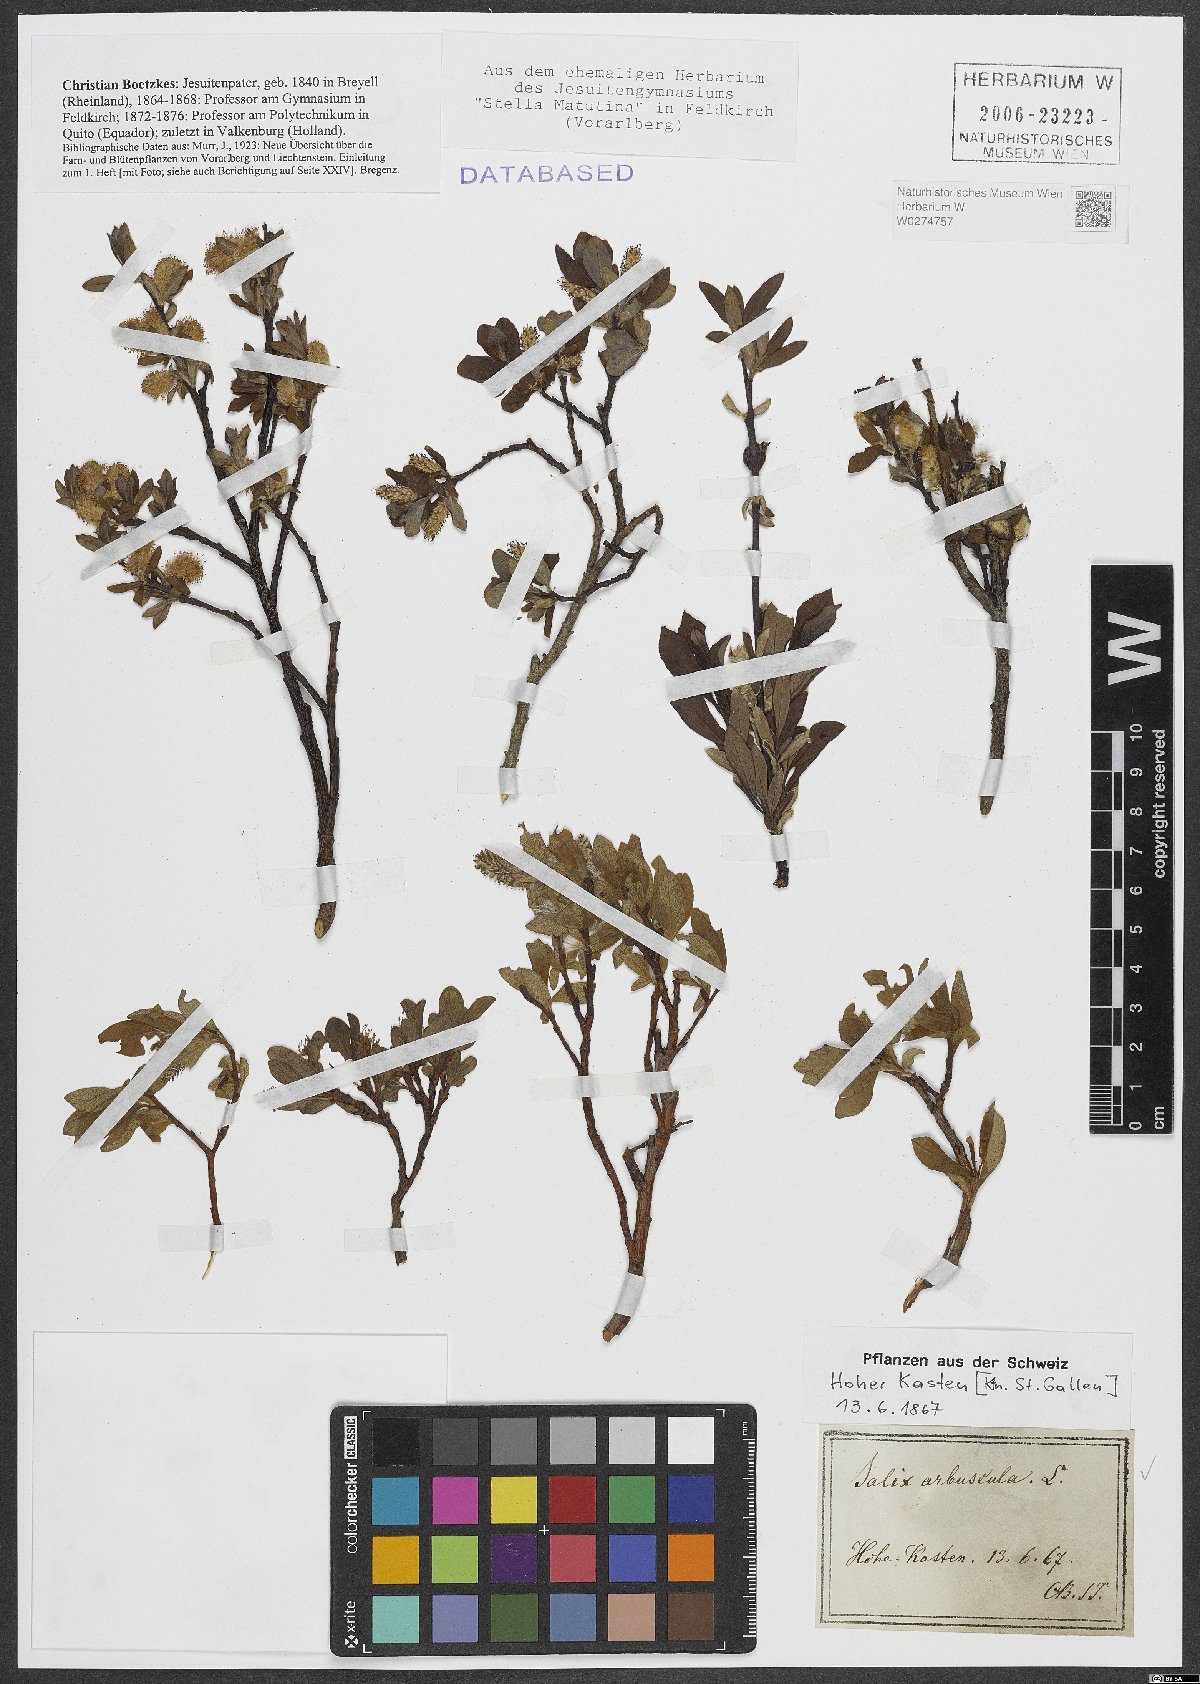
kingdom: Plantae
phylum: Tracheophyta
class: Magnoliopsida
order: Malpighiales
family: Salicaceae
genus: Salix
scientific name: Salix arbuscula
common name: Mountain willow
